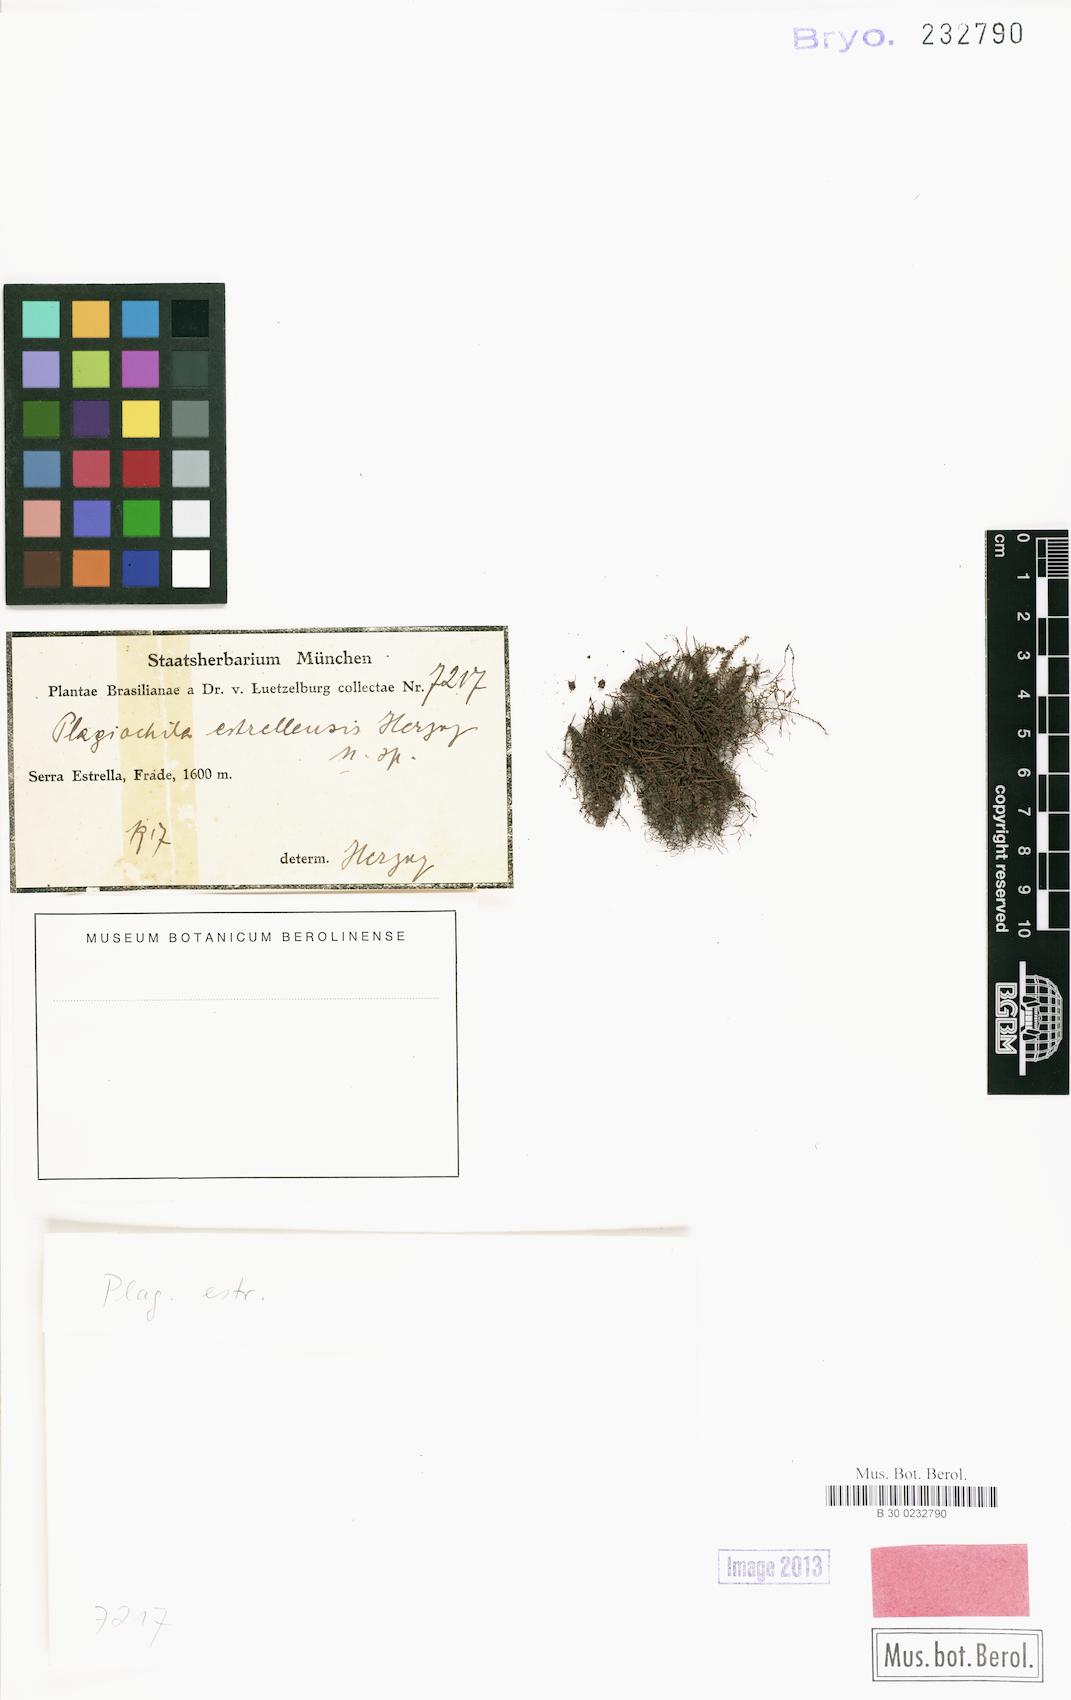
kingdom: Plantae
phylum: Marchantiophyta
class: Jungermanniopsida
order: Jungermanniales
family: Plagiochilaceae
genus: Plagiochila
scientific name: Plagiochila estrellensis
